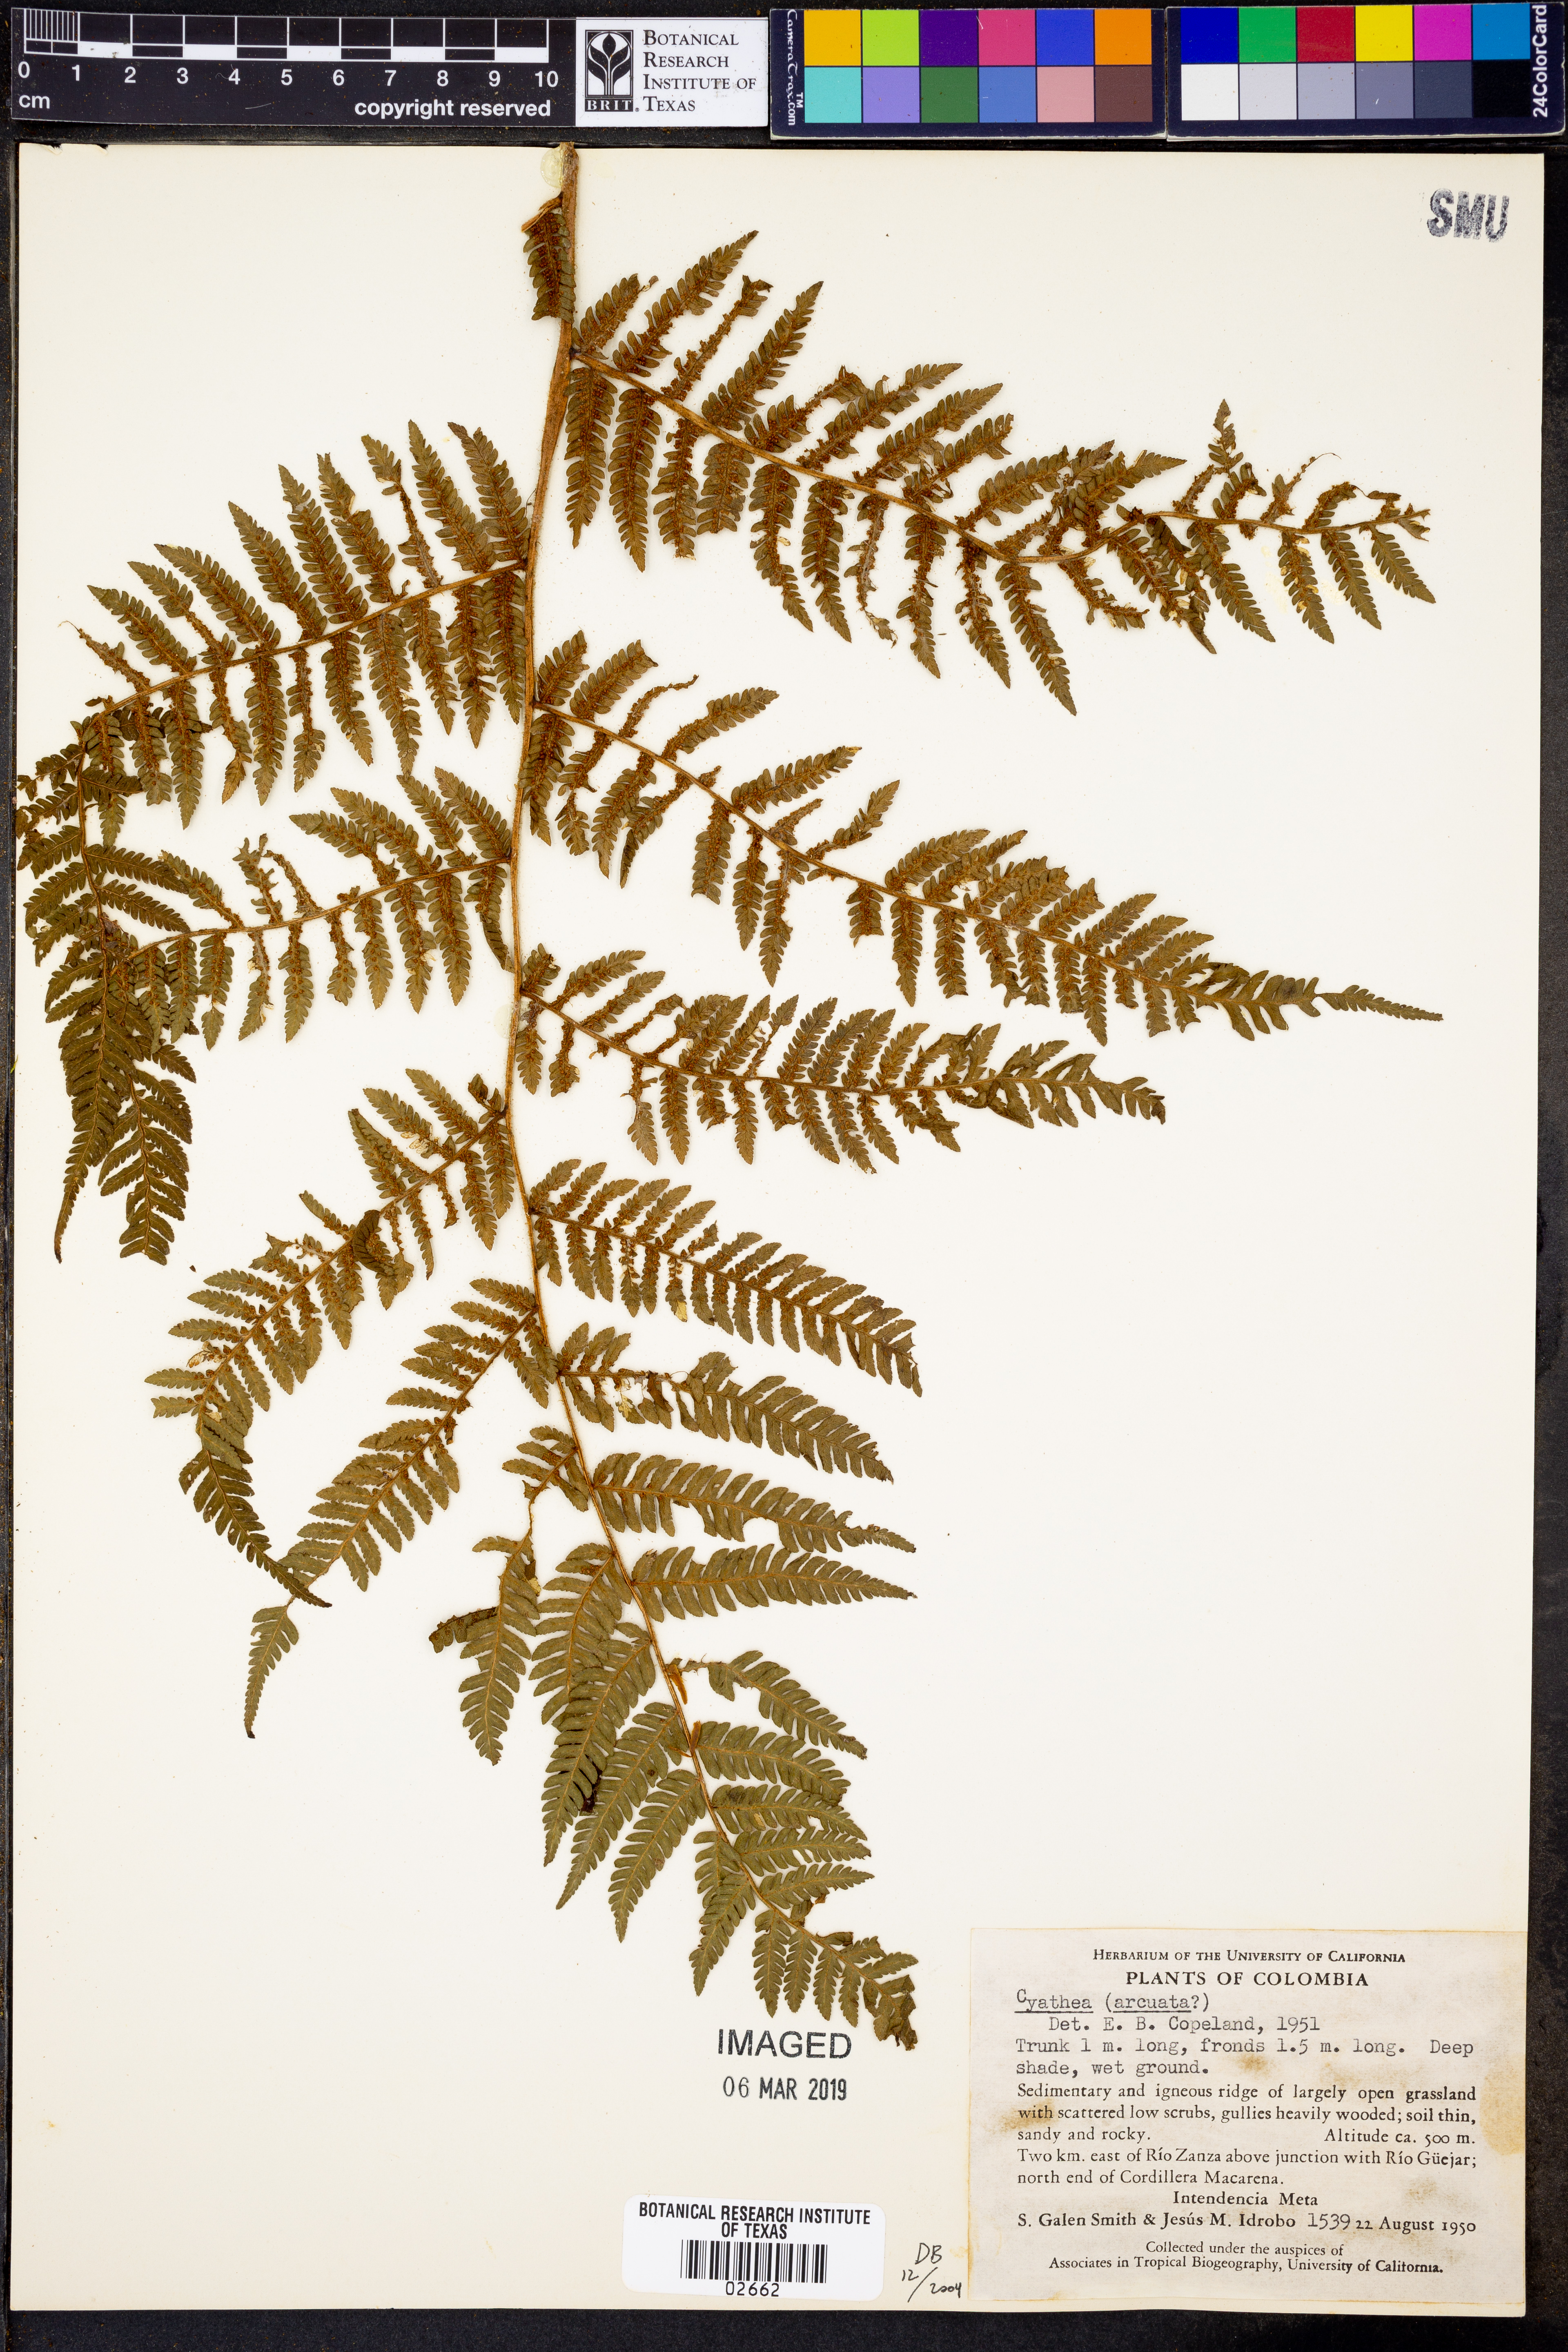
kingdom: Plantae
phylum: Tracheophyta
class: Polypodiopsida
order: Cyatheales
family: Cyatheaceae
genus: Sphaeropteris
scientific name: Sphaeropteris integra
